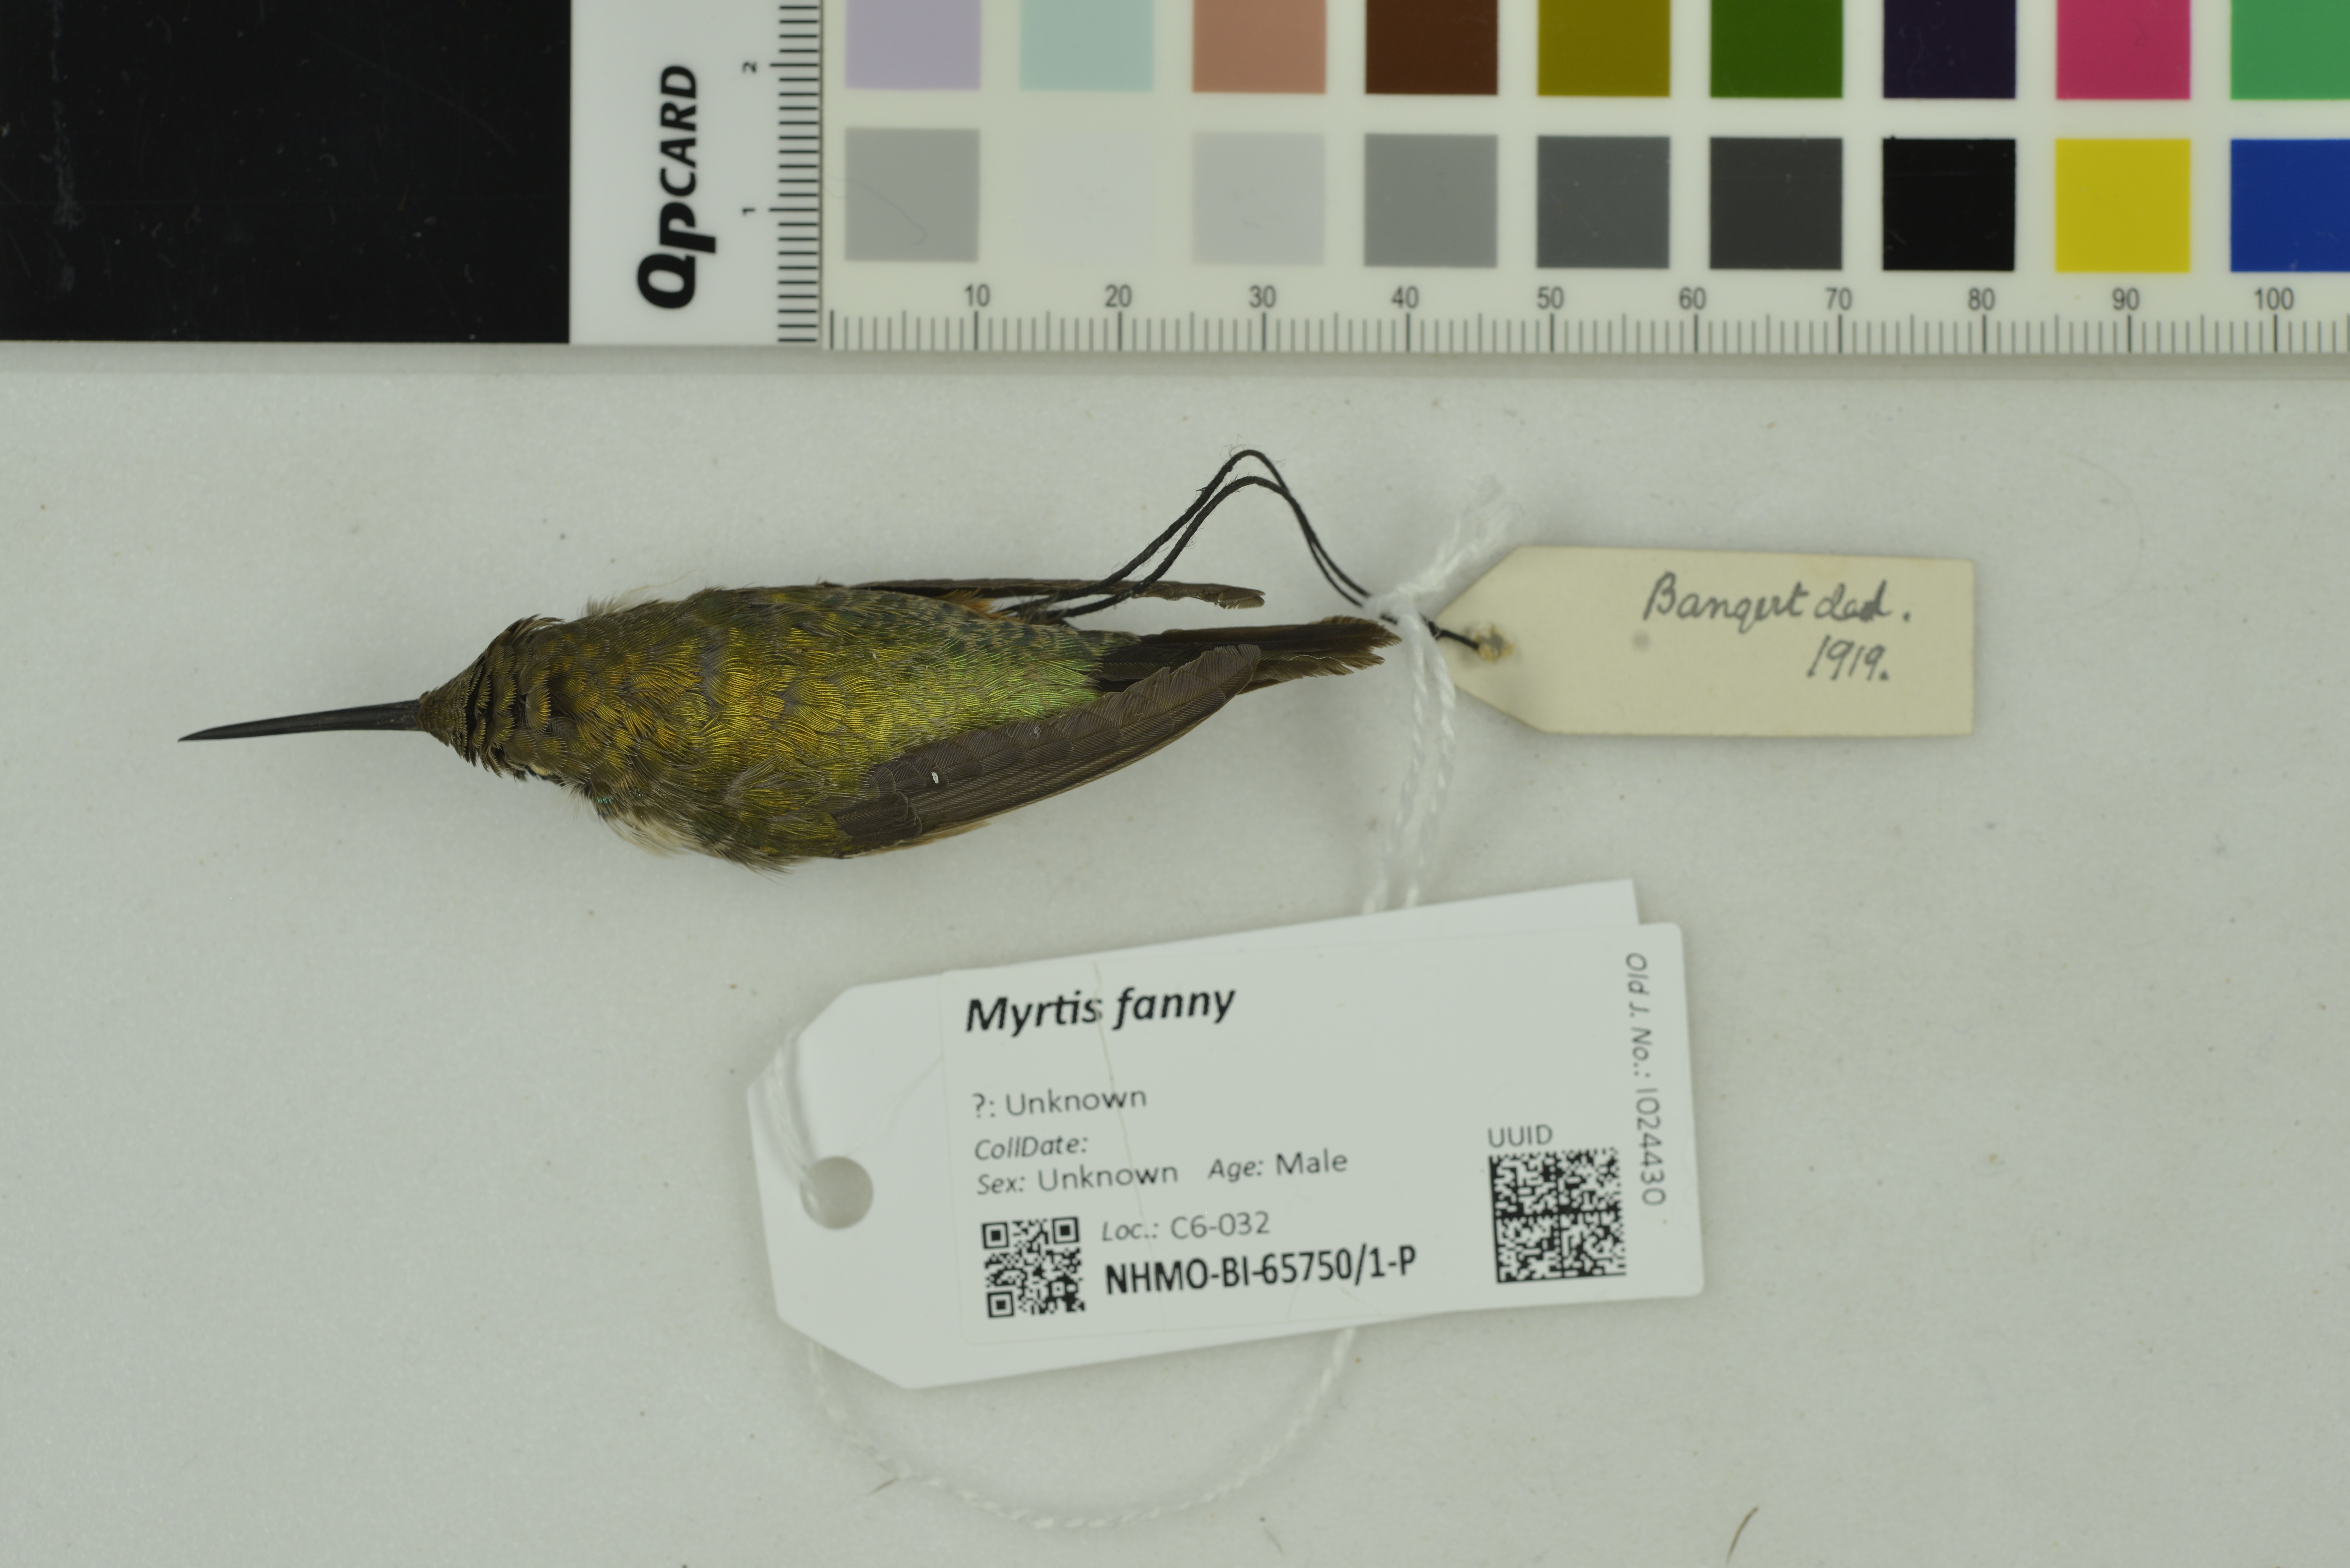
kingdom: Animalia
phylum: Chordata
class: Aves
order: Apodiformes
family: Trochilidae
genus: Myrtis
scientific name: Myrtis fanny
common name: Purple-collared woodstar
